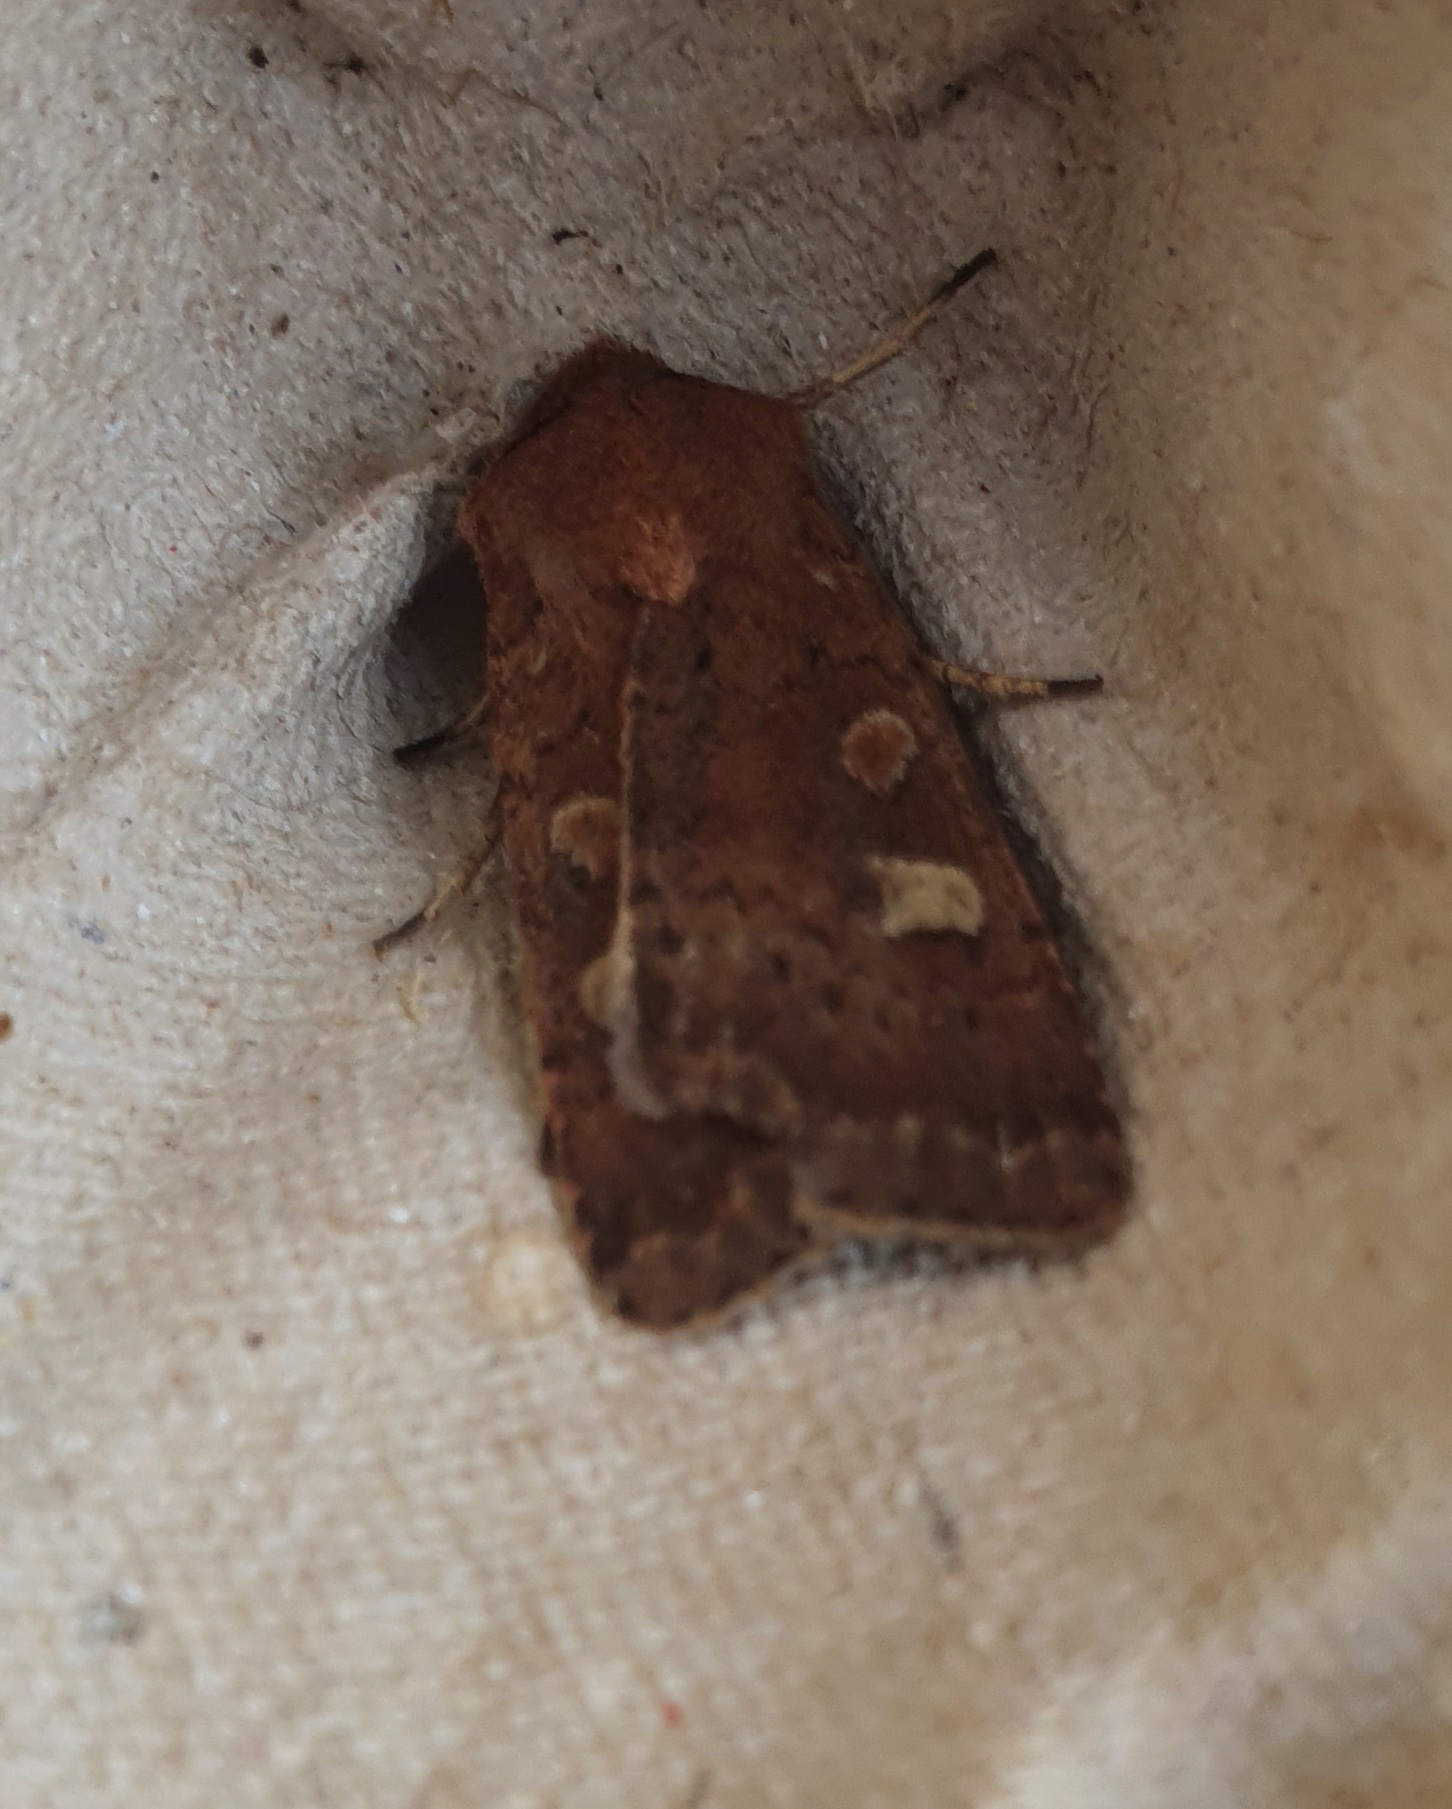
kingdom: Animalia
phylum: Arthropoda
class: Insecta
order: Lepidoptera
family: Noctuidae
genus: Xestia
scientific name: Xestia xanthographa
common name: Gulmærket glansugle
